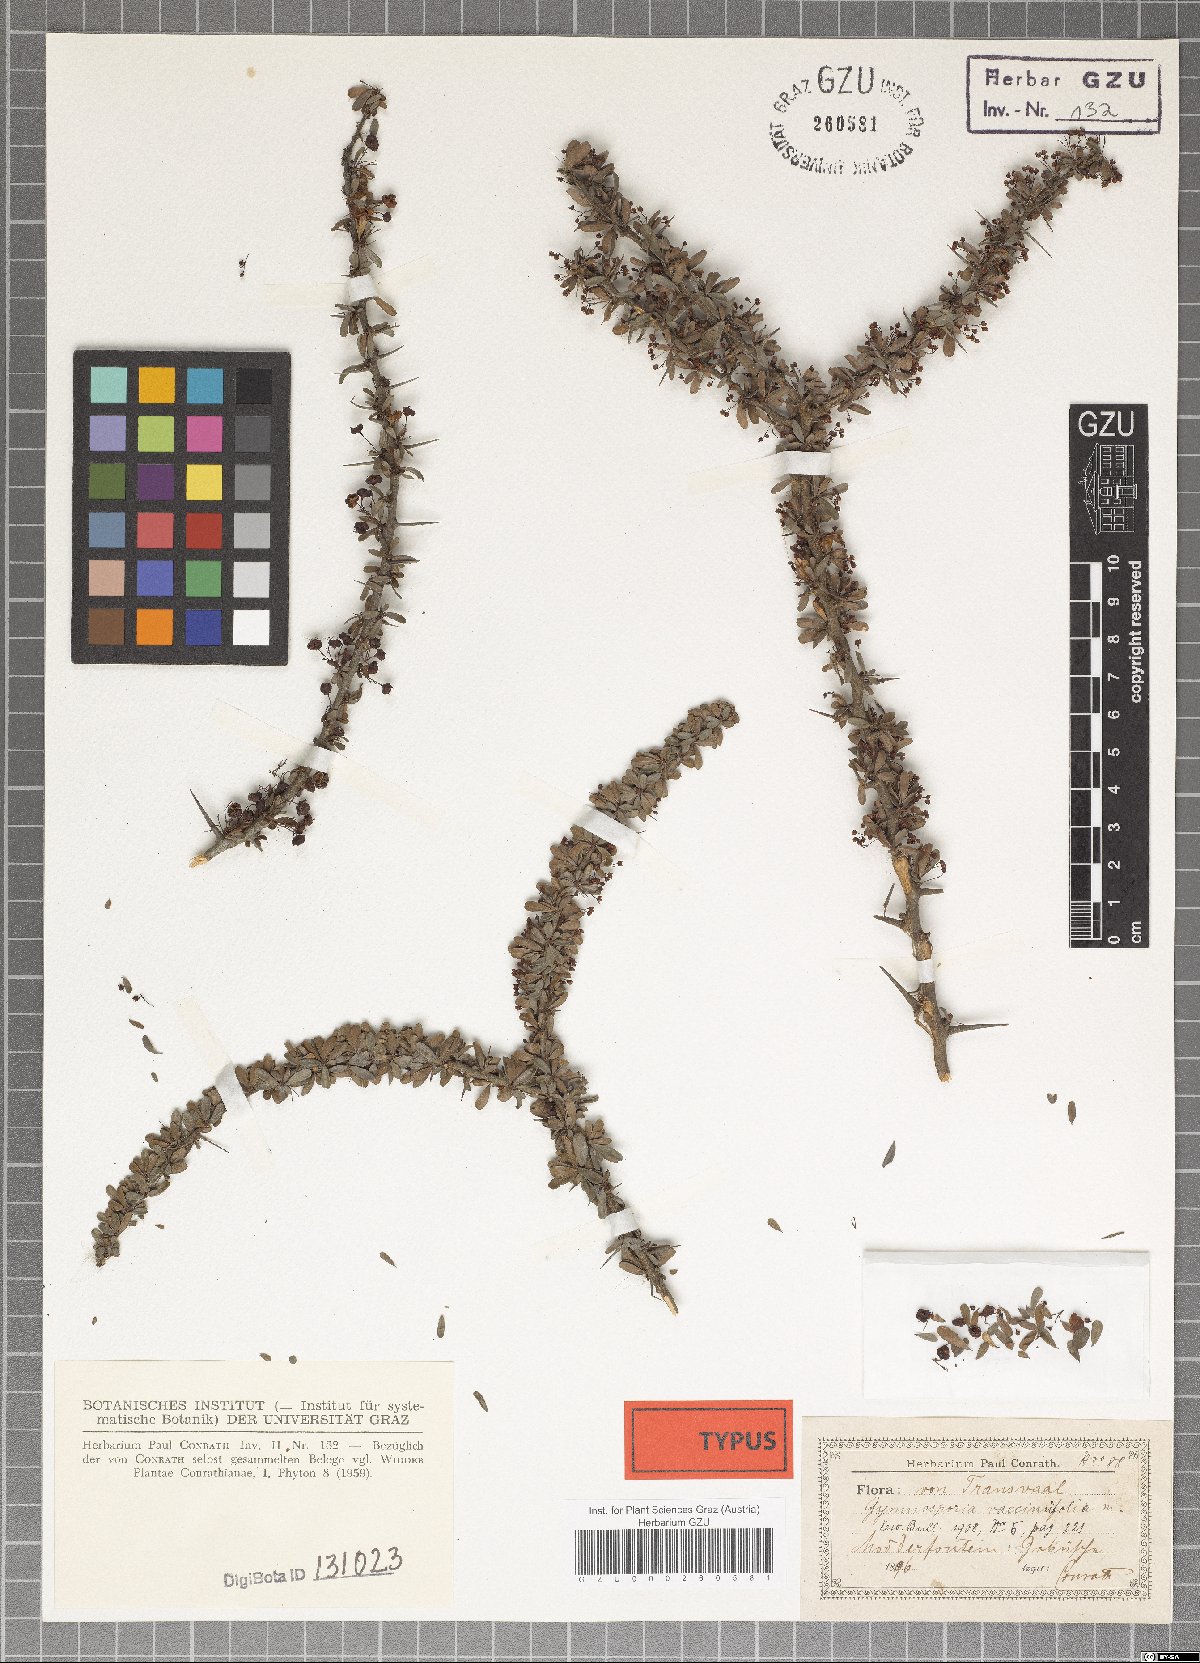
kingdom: Plantae
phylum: Tracheophyta
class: Magnoliopsida
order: Celastrales
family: Celastraceae
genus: Gymnosporia
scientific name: Gymnosporia polyacantha
